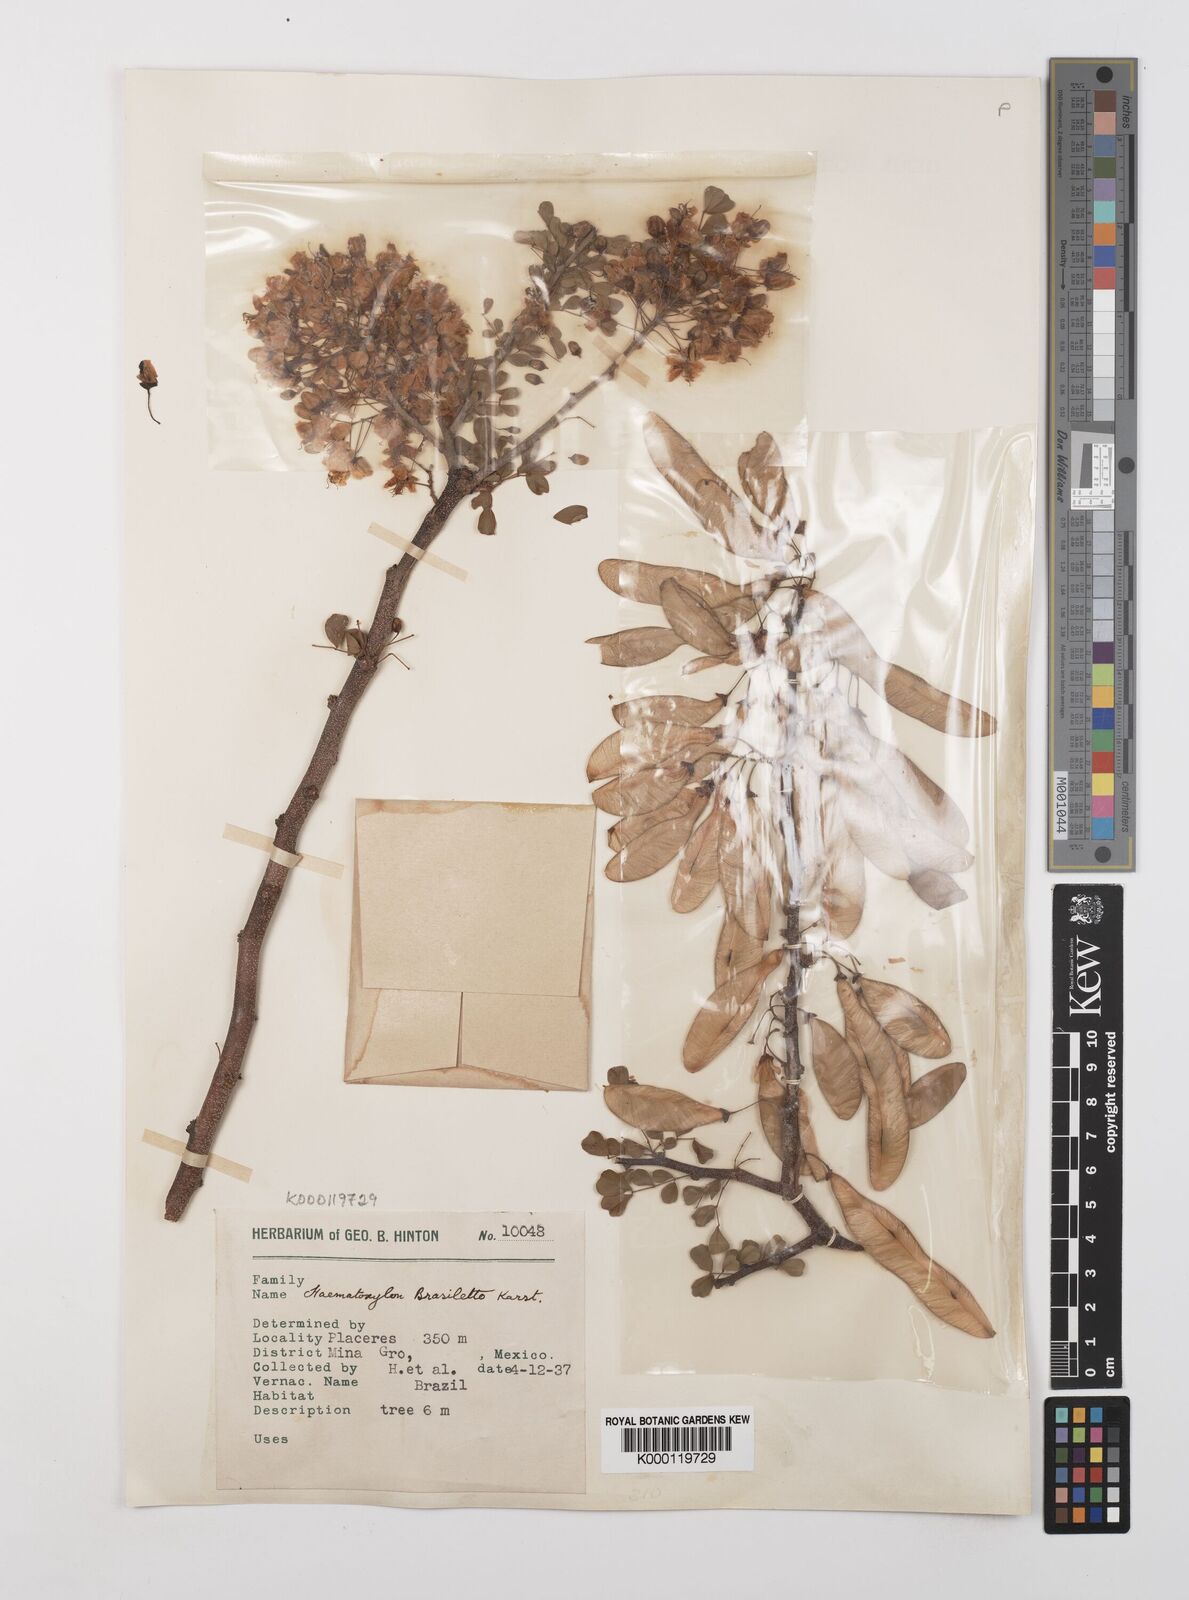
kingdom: Plantae
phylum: Tracheophyta
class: Magnoliopsida
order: Fabales
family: Fabaceae
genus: Haematoxylum
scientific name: Haematoxylum brasiletto
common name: Peachwood
